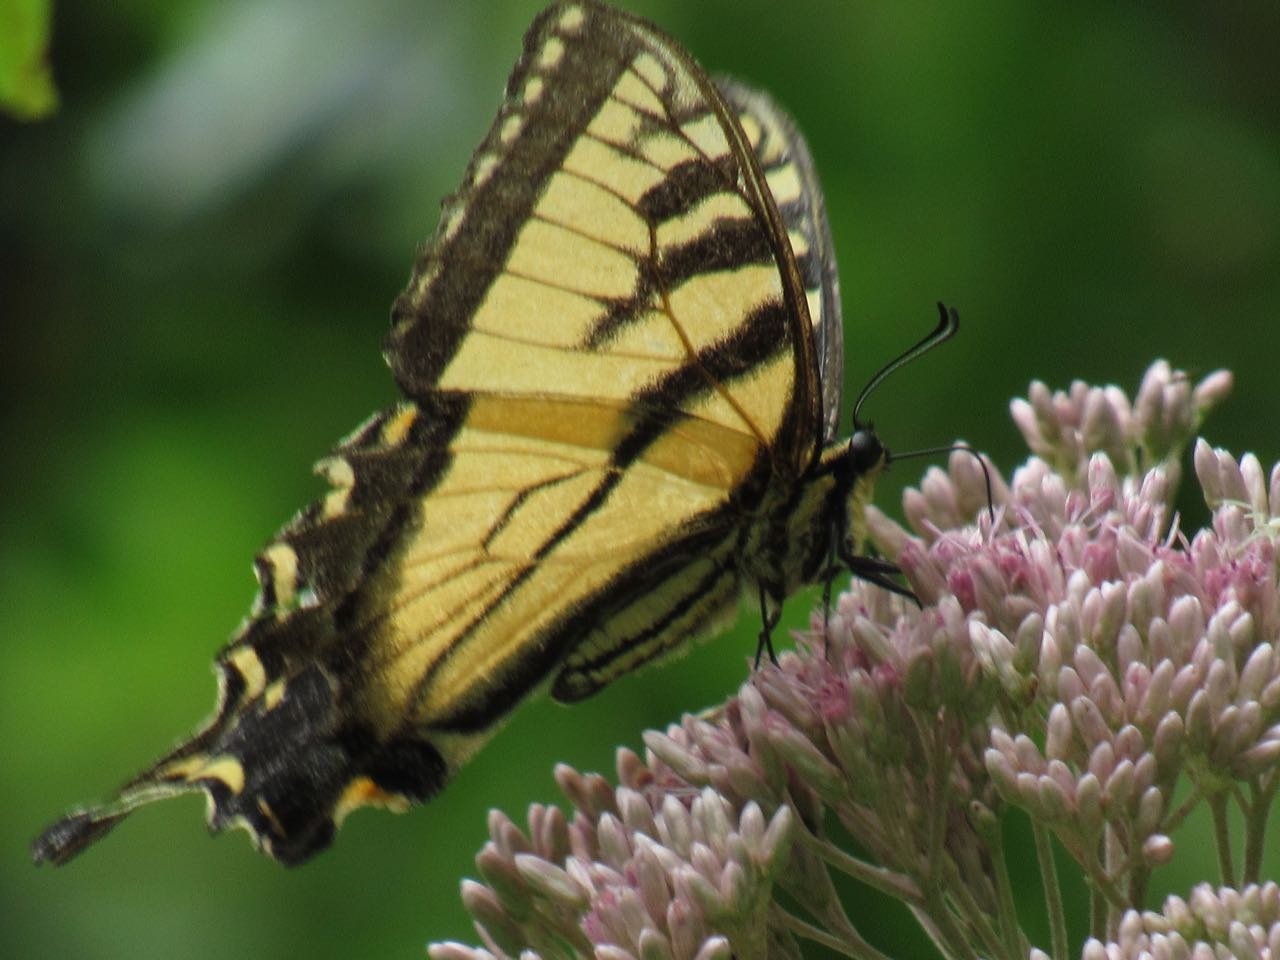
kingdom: Animalia
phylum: Arthropoda
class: Insecta
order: Lepidoptera
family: Papilionidae
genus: Pterourus
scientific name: Pterourus
